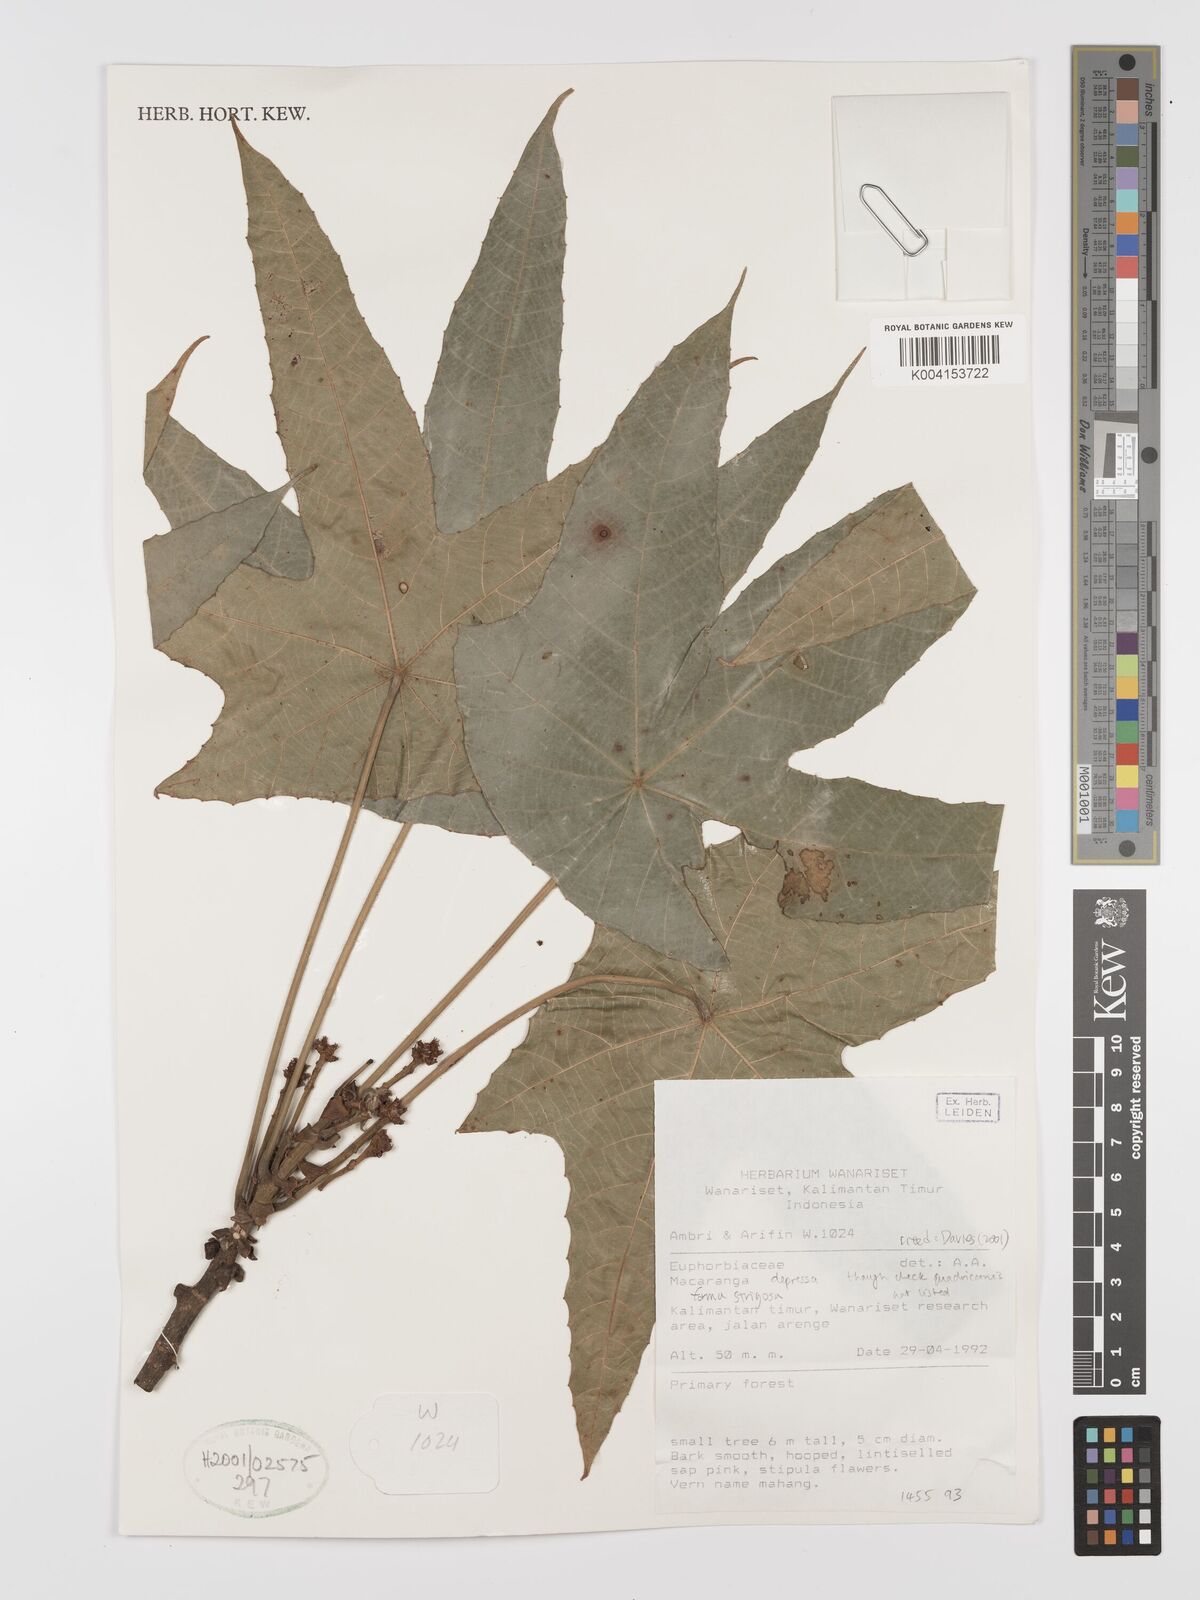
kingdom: Plantae
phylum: Tracheophyta
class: Magnoliopsida
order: Malpighiales
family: Euphorbiaceae
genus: Macaranga
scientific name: Macaranga depressa
